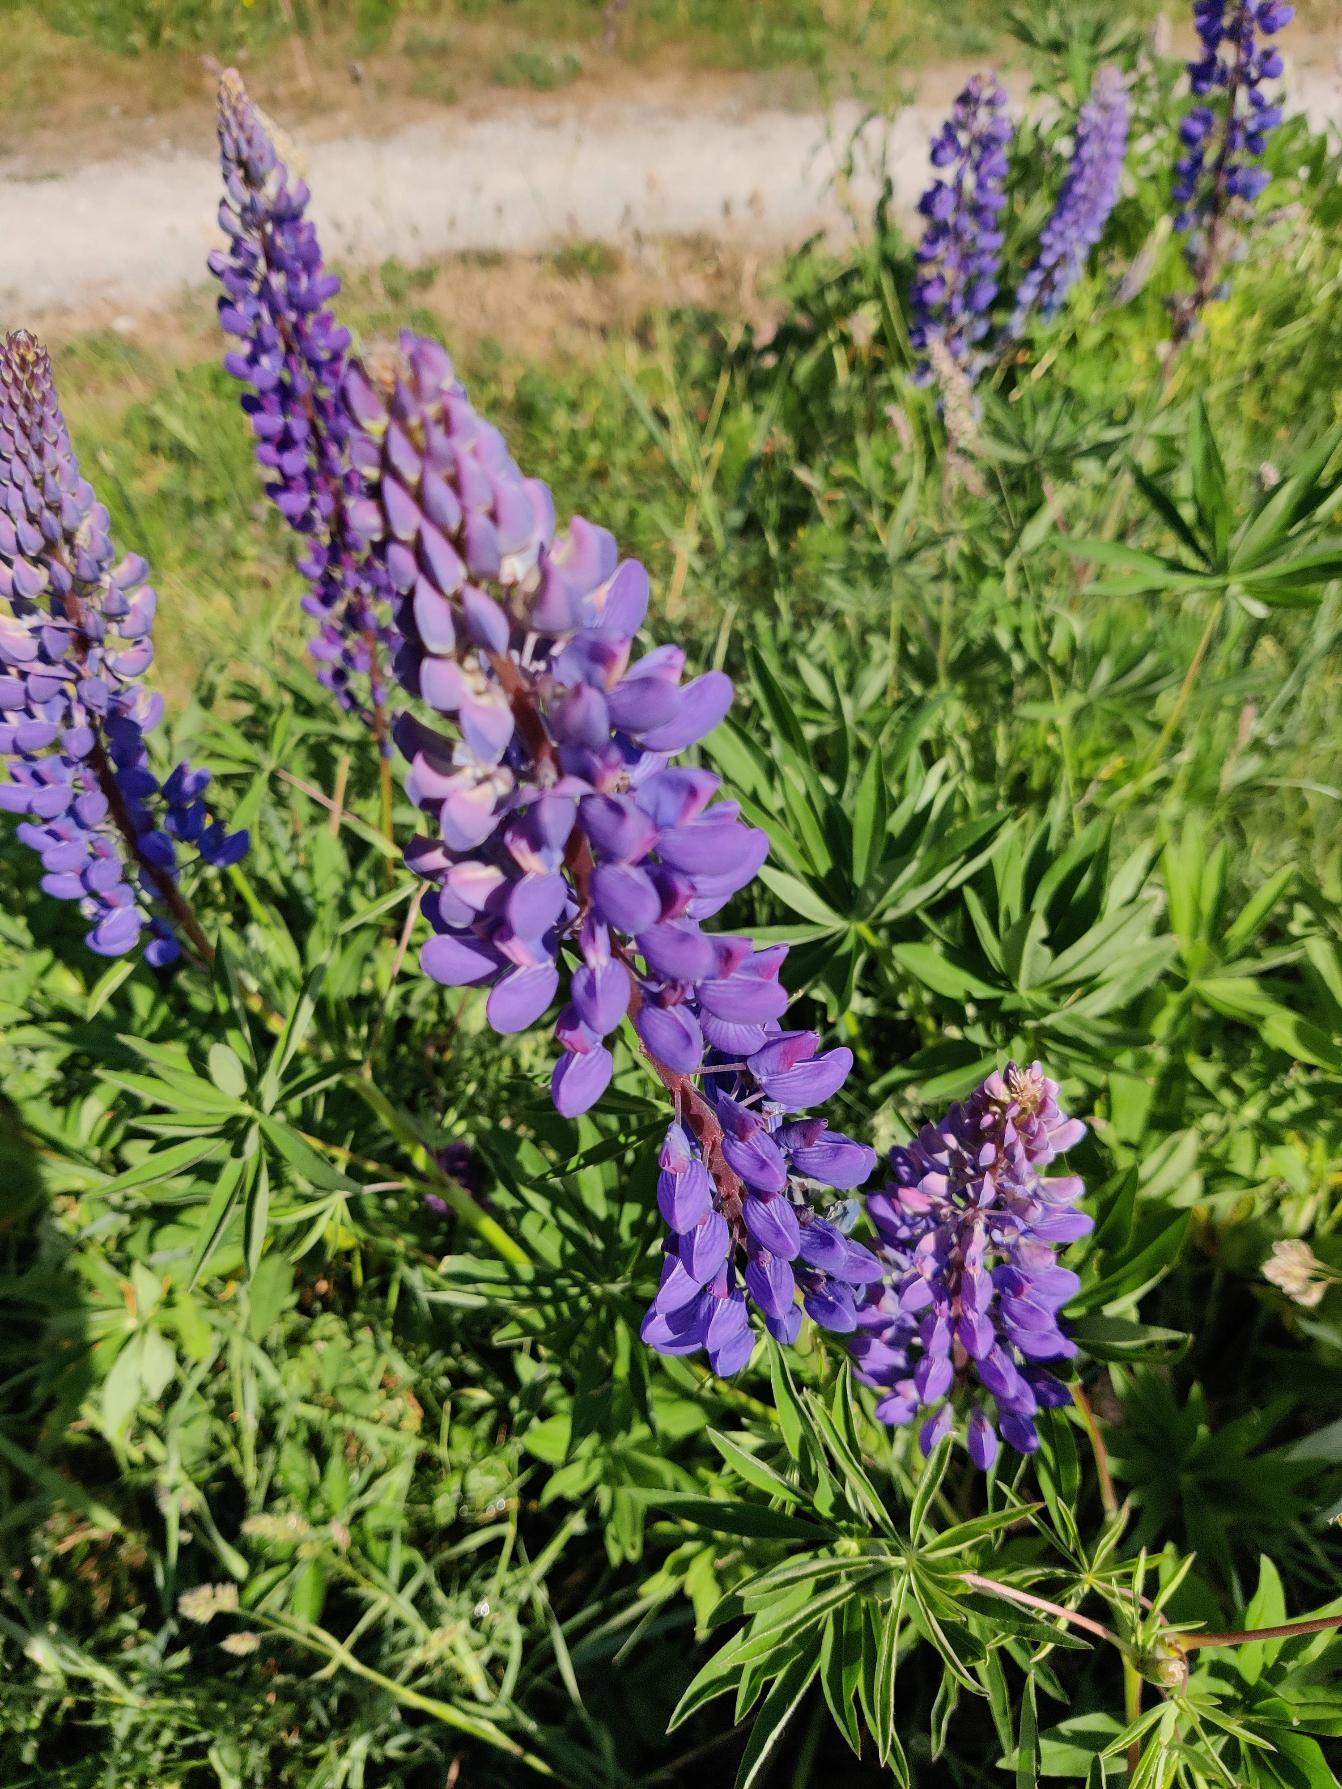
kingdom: Plantae
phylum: Tracheophyta
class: Magnoliopsida
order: Fabales
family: Fabaceae
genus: Lupinus
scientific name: Lupinus polyphyllus
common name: Mangebladet lupin
